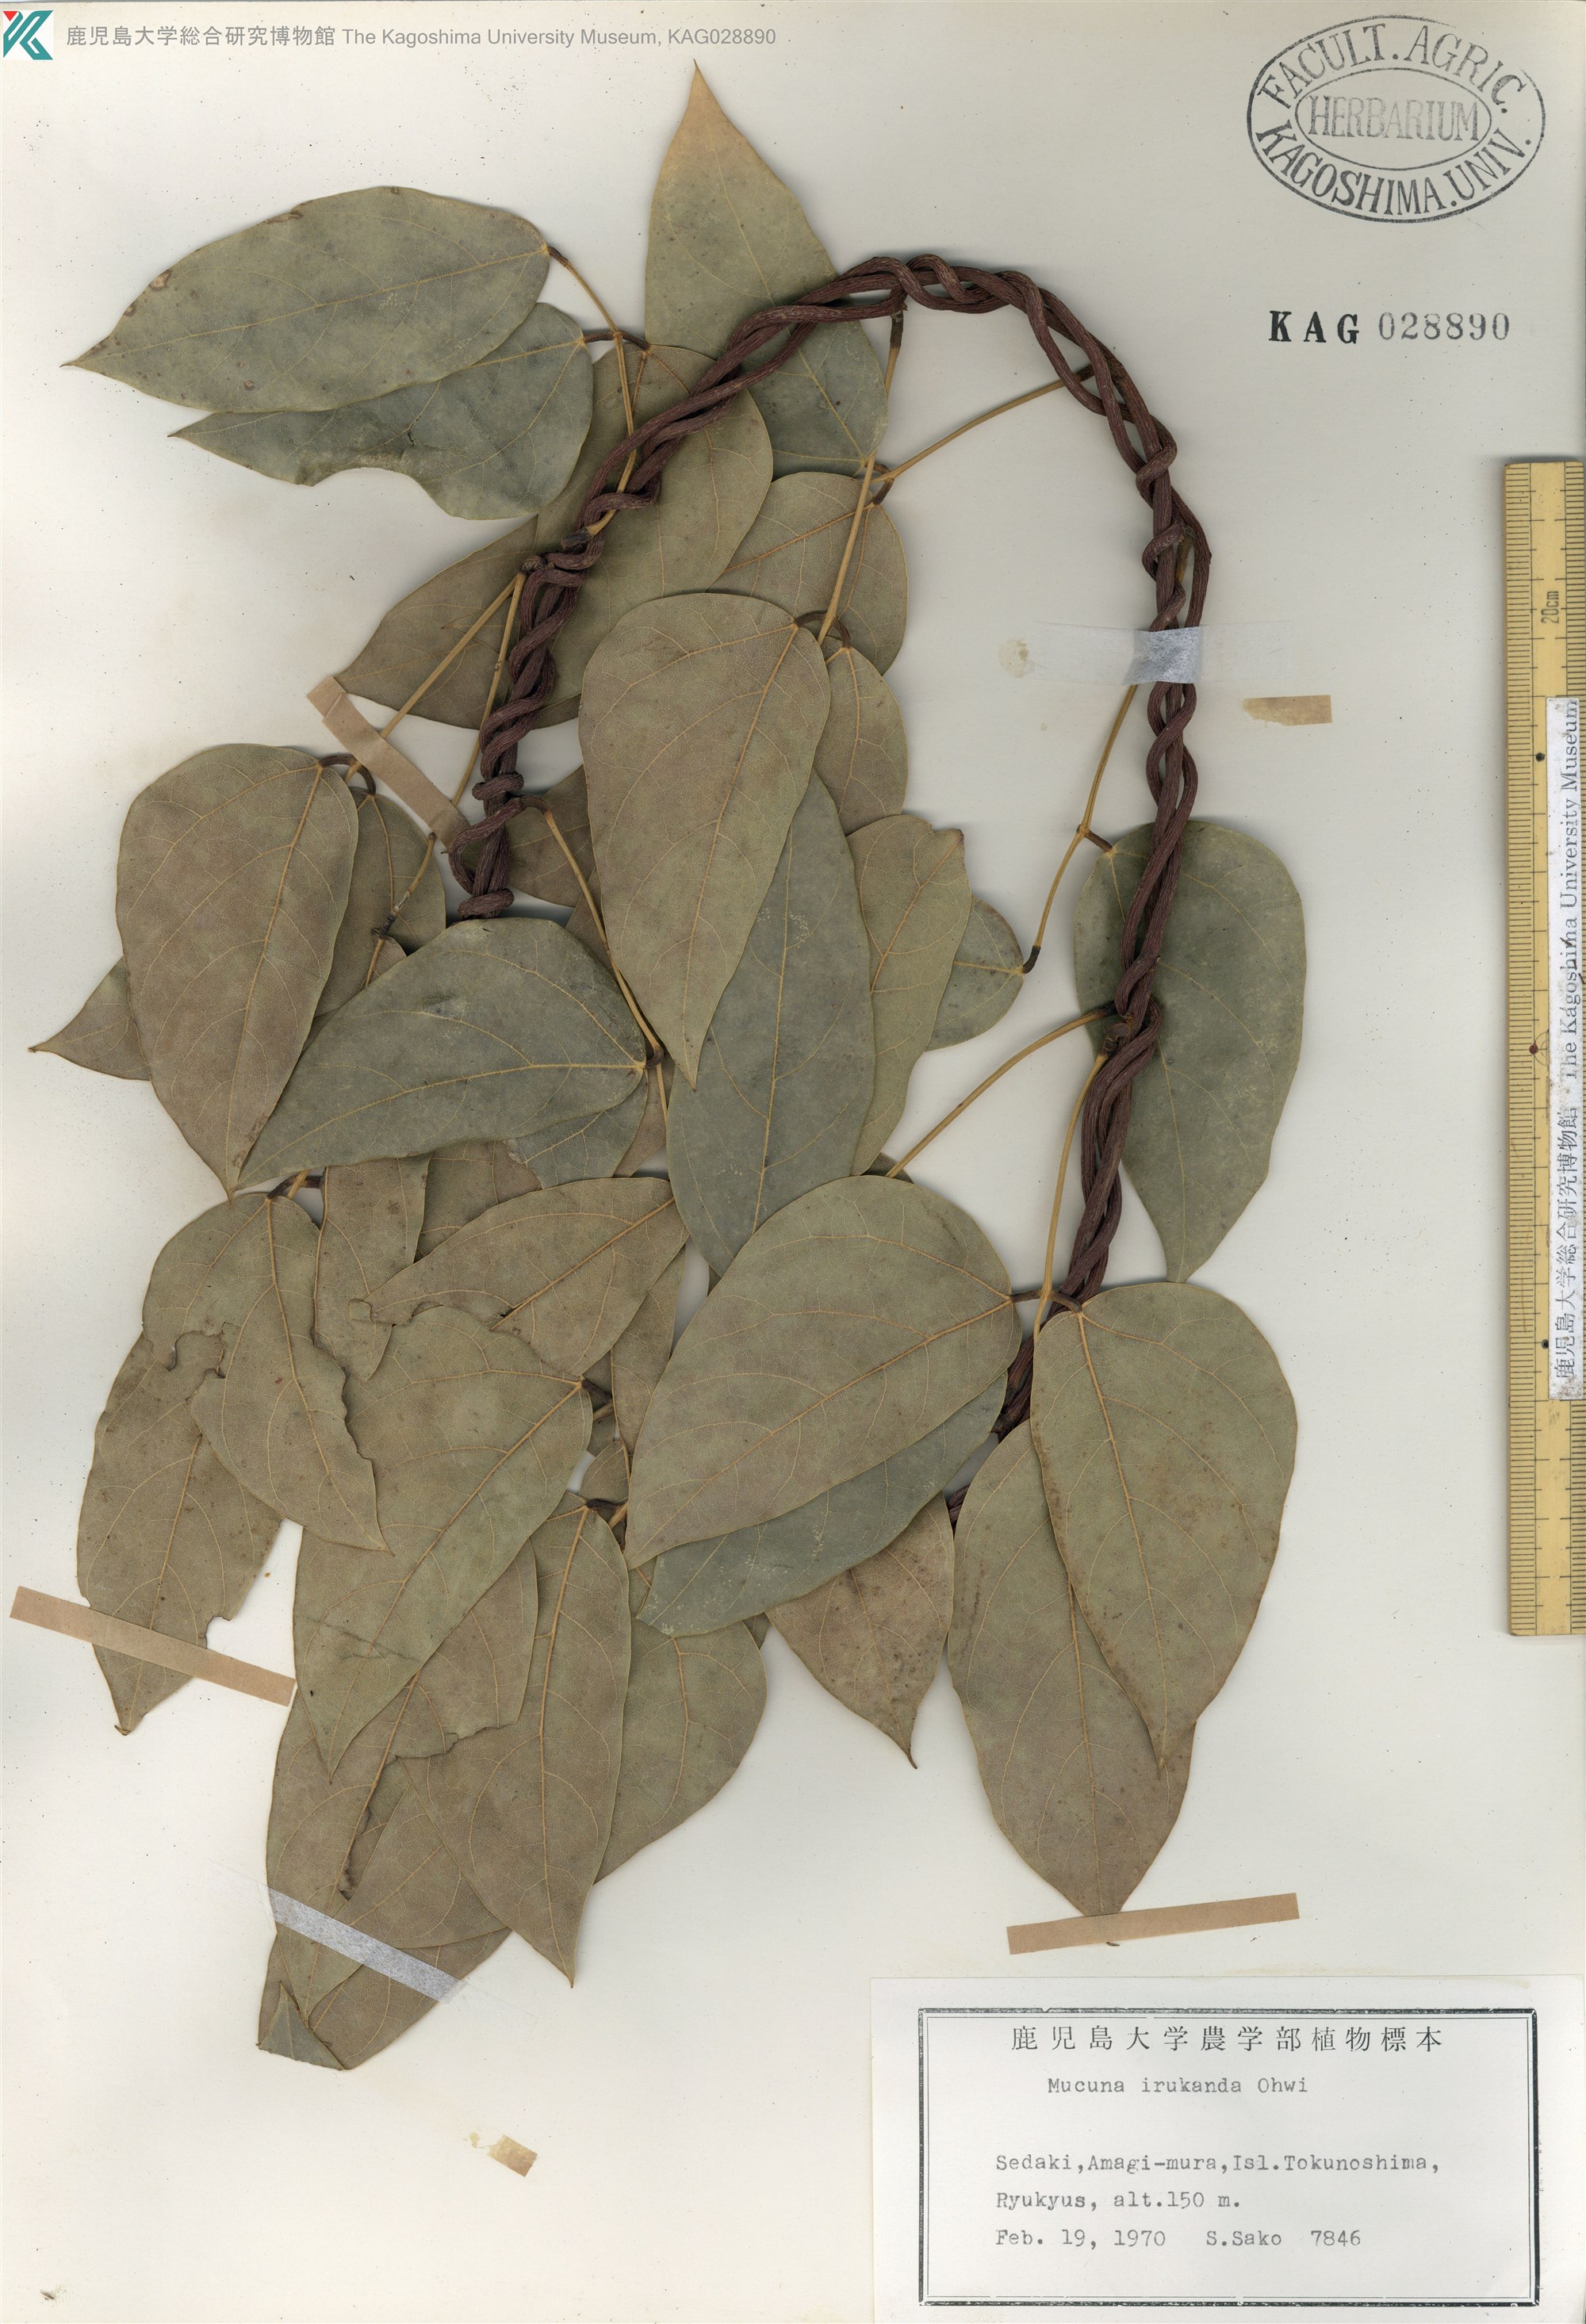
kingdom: Plantae
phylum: Tracheophyta
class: Magnoliopsida
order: Fabales
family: Fabaceae
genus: Mucuna
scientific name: Mucuna macrocarpa
